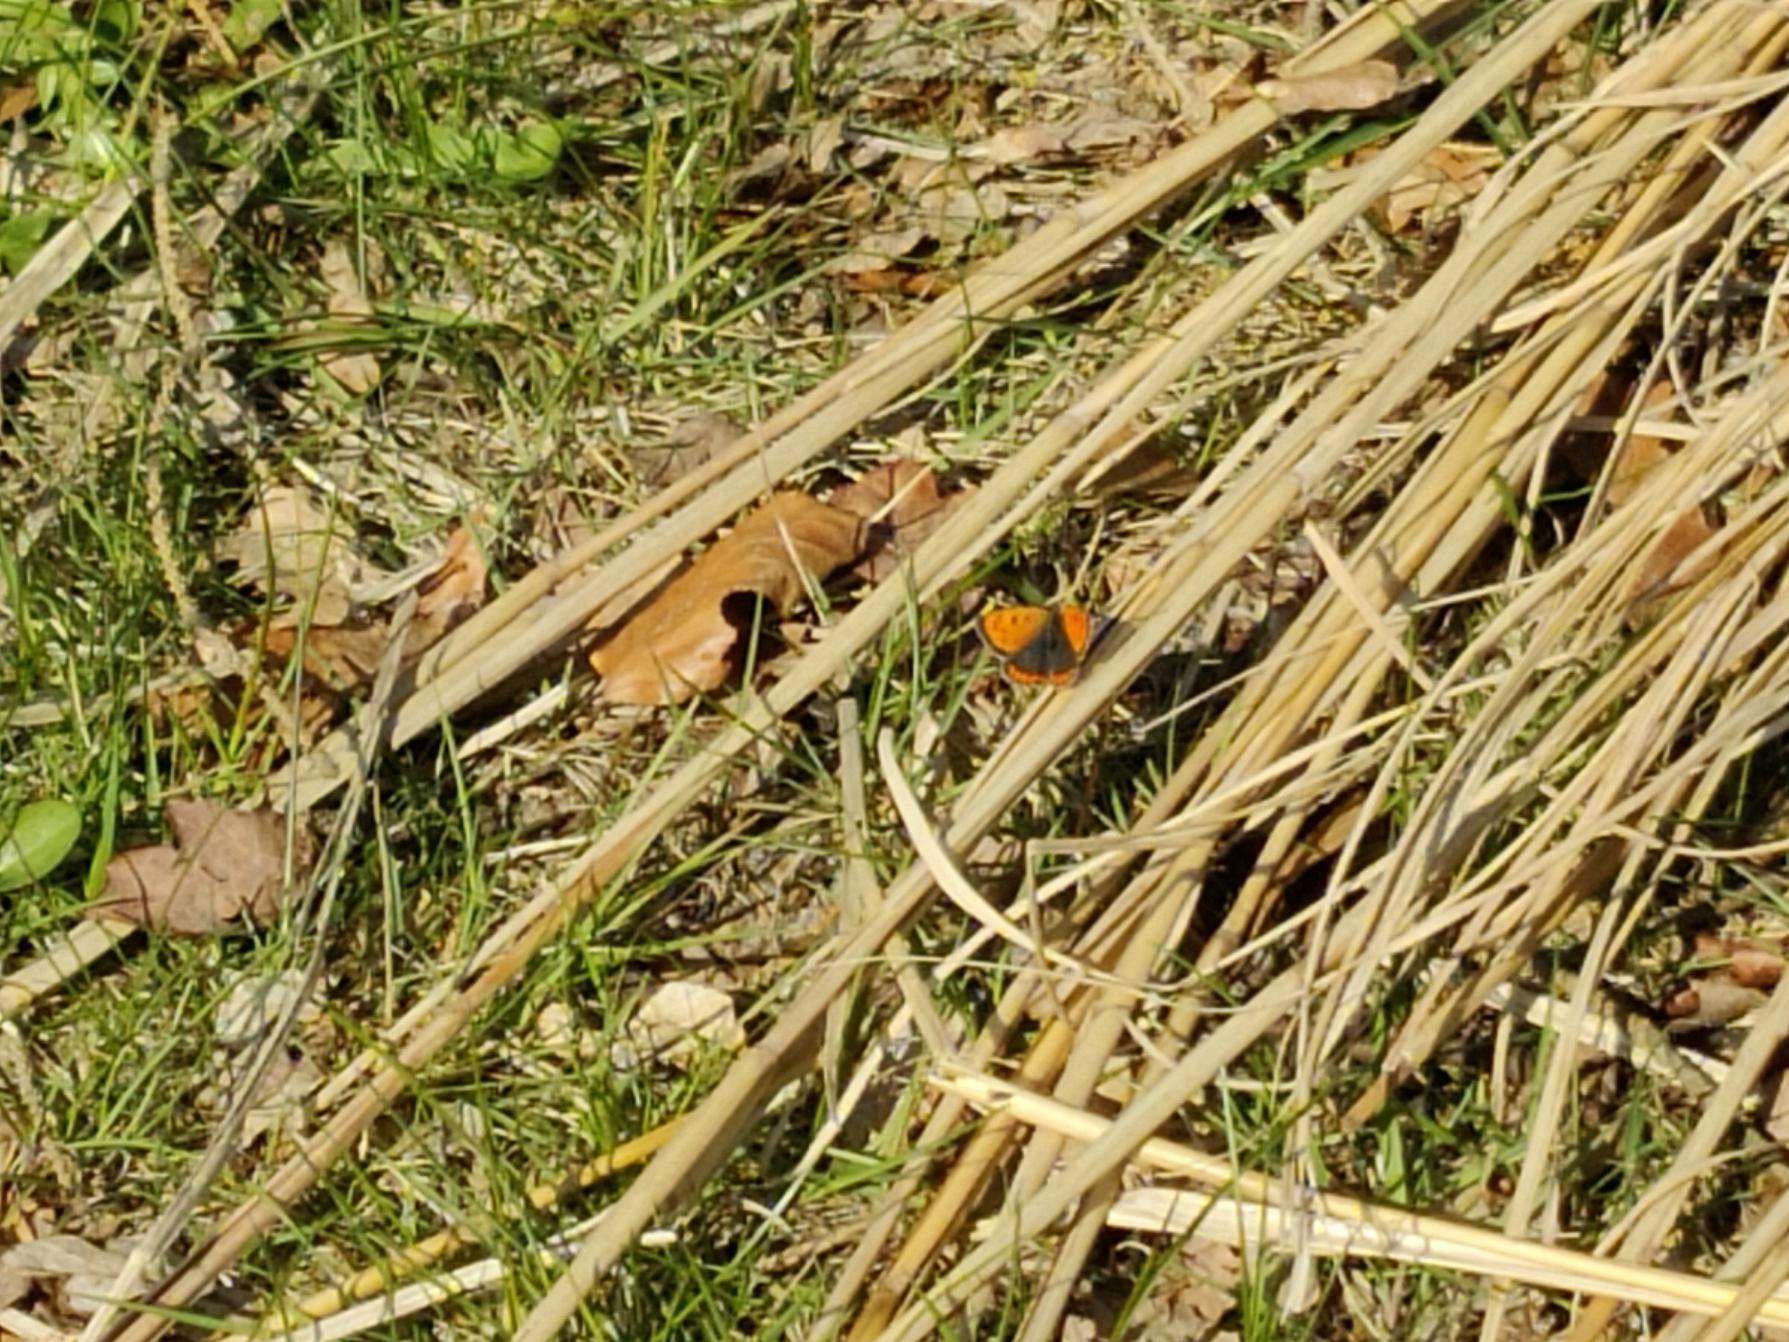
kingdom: Animalia
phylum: Arthropoda
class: Insecta
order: Lepidoptera
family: Lycaenidae
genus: Lycaena
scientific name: Lycaena phlaeas
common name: Lille ildfugl
